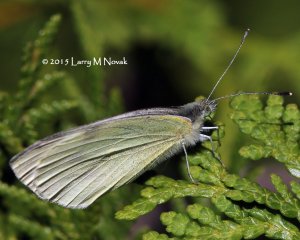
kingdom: Animalia
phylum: Arthropoda
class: Insecta
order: Lepidoptera
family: Pieridae
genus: Pieris
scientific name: Pieris rapae
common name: Cabbage White
